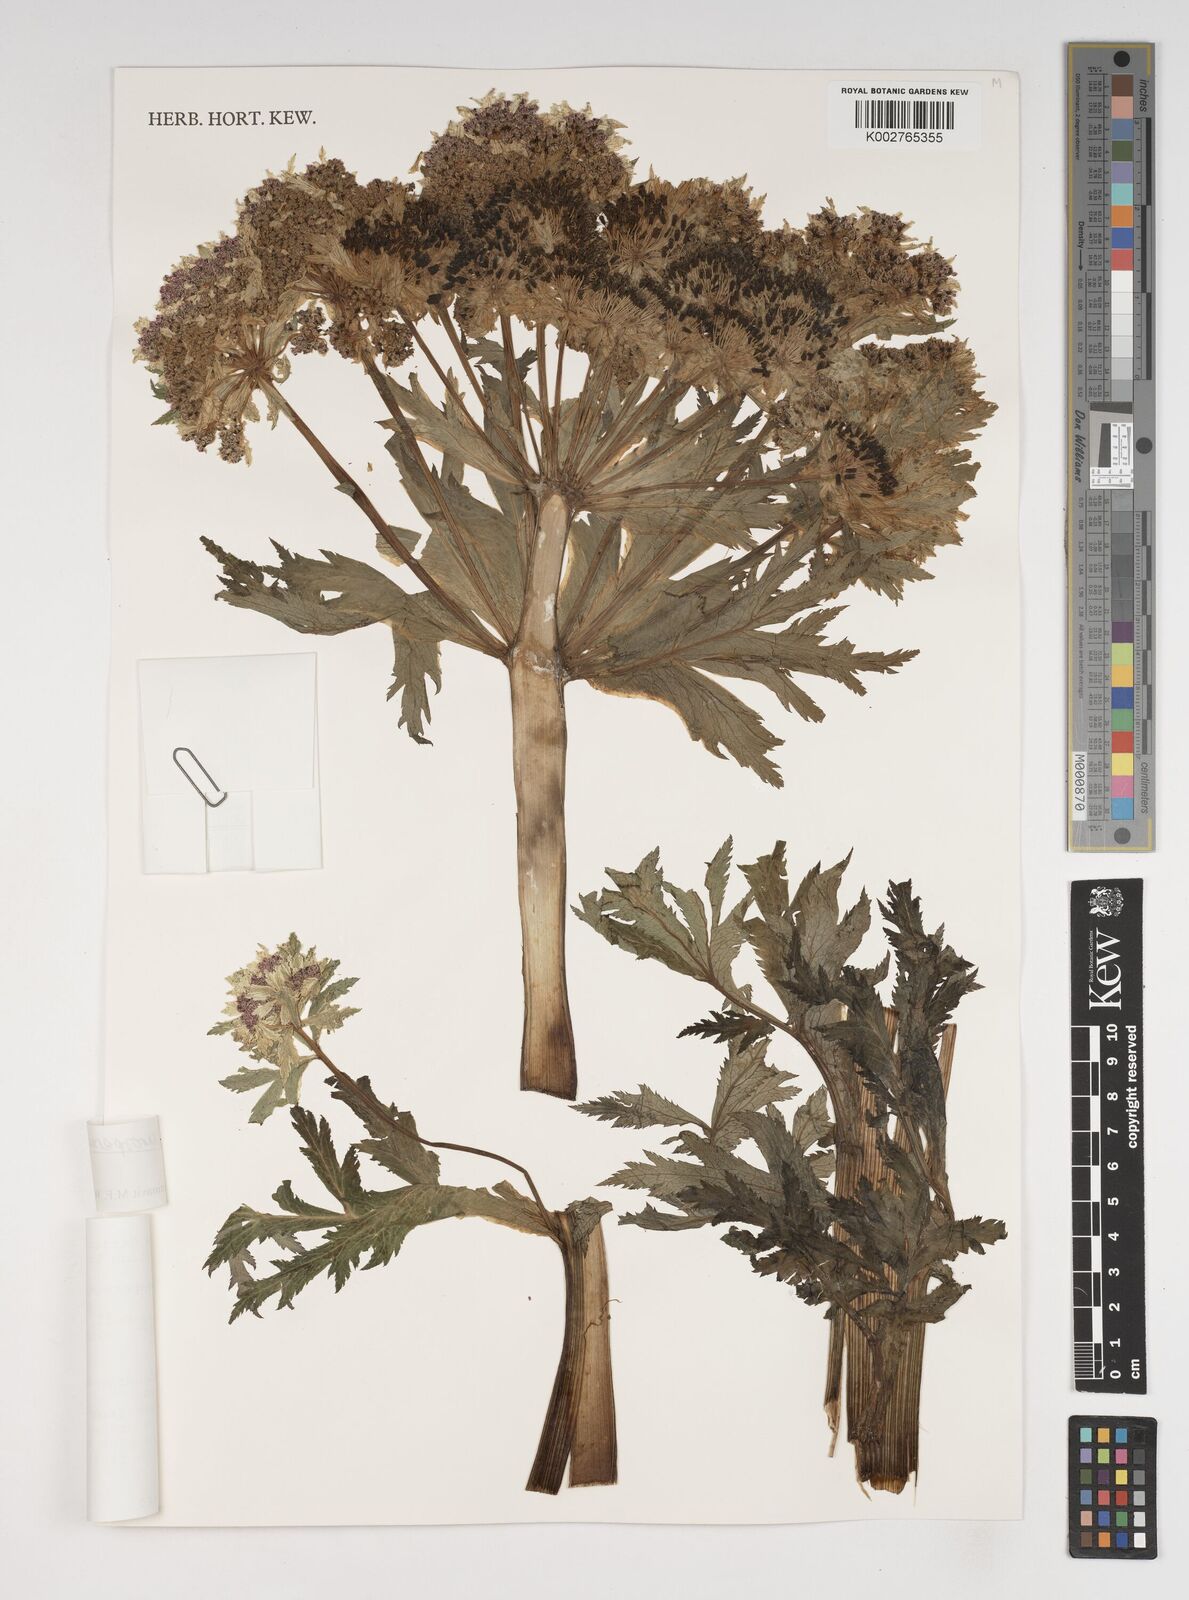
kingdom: Plantae
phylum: Tracheophyta
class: Magnoliopsida
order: Apiales
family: Apiaceae
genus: Hymenidium
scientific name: Hymenidium davidii
